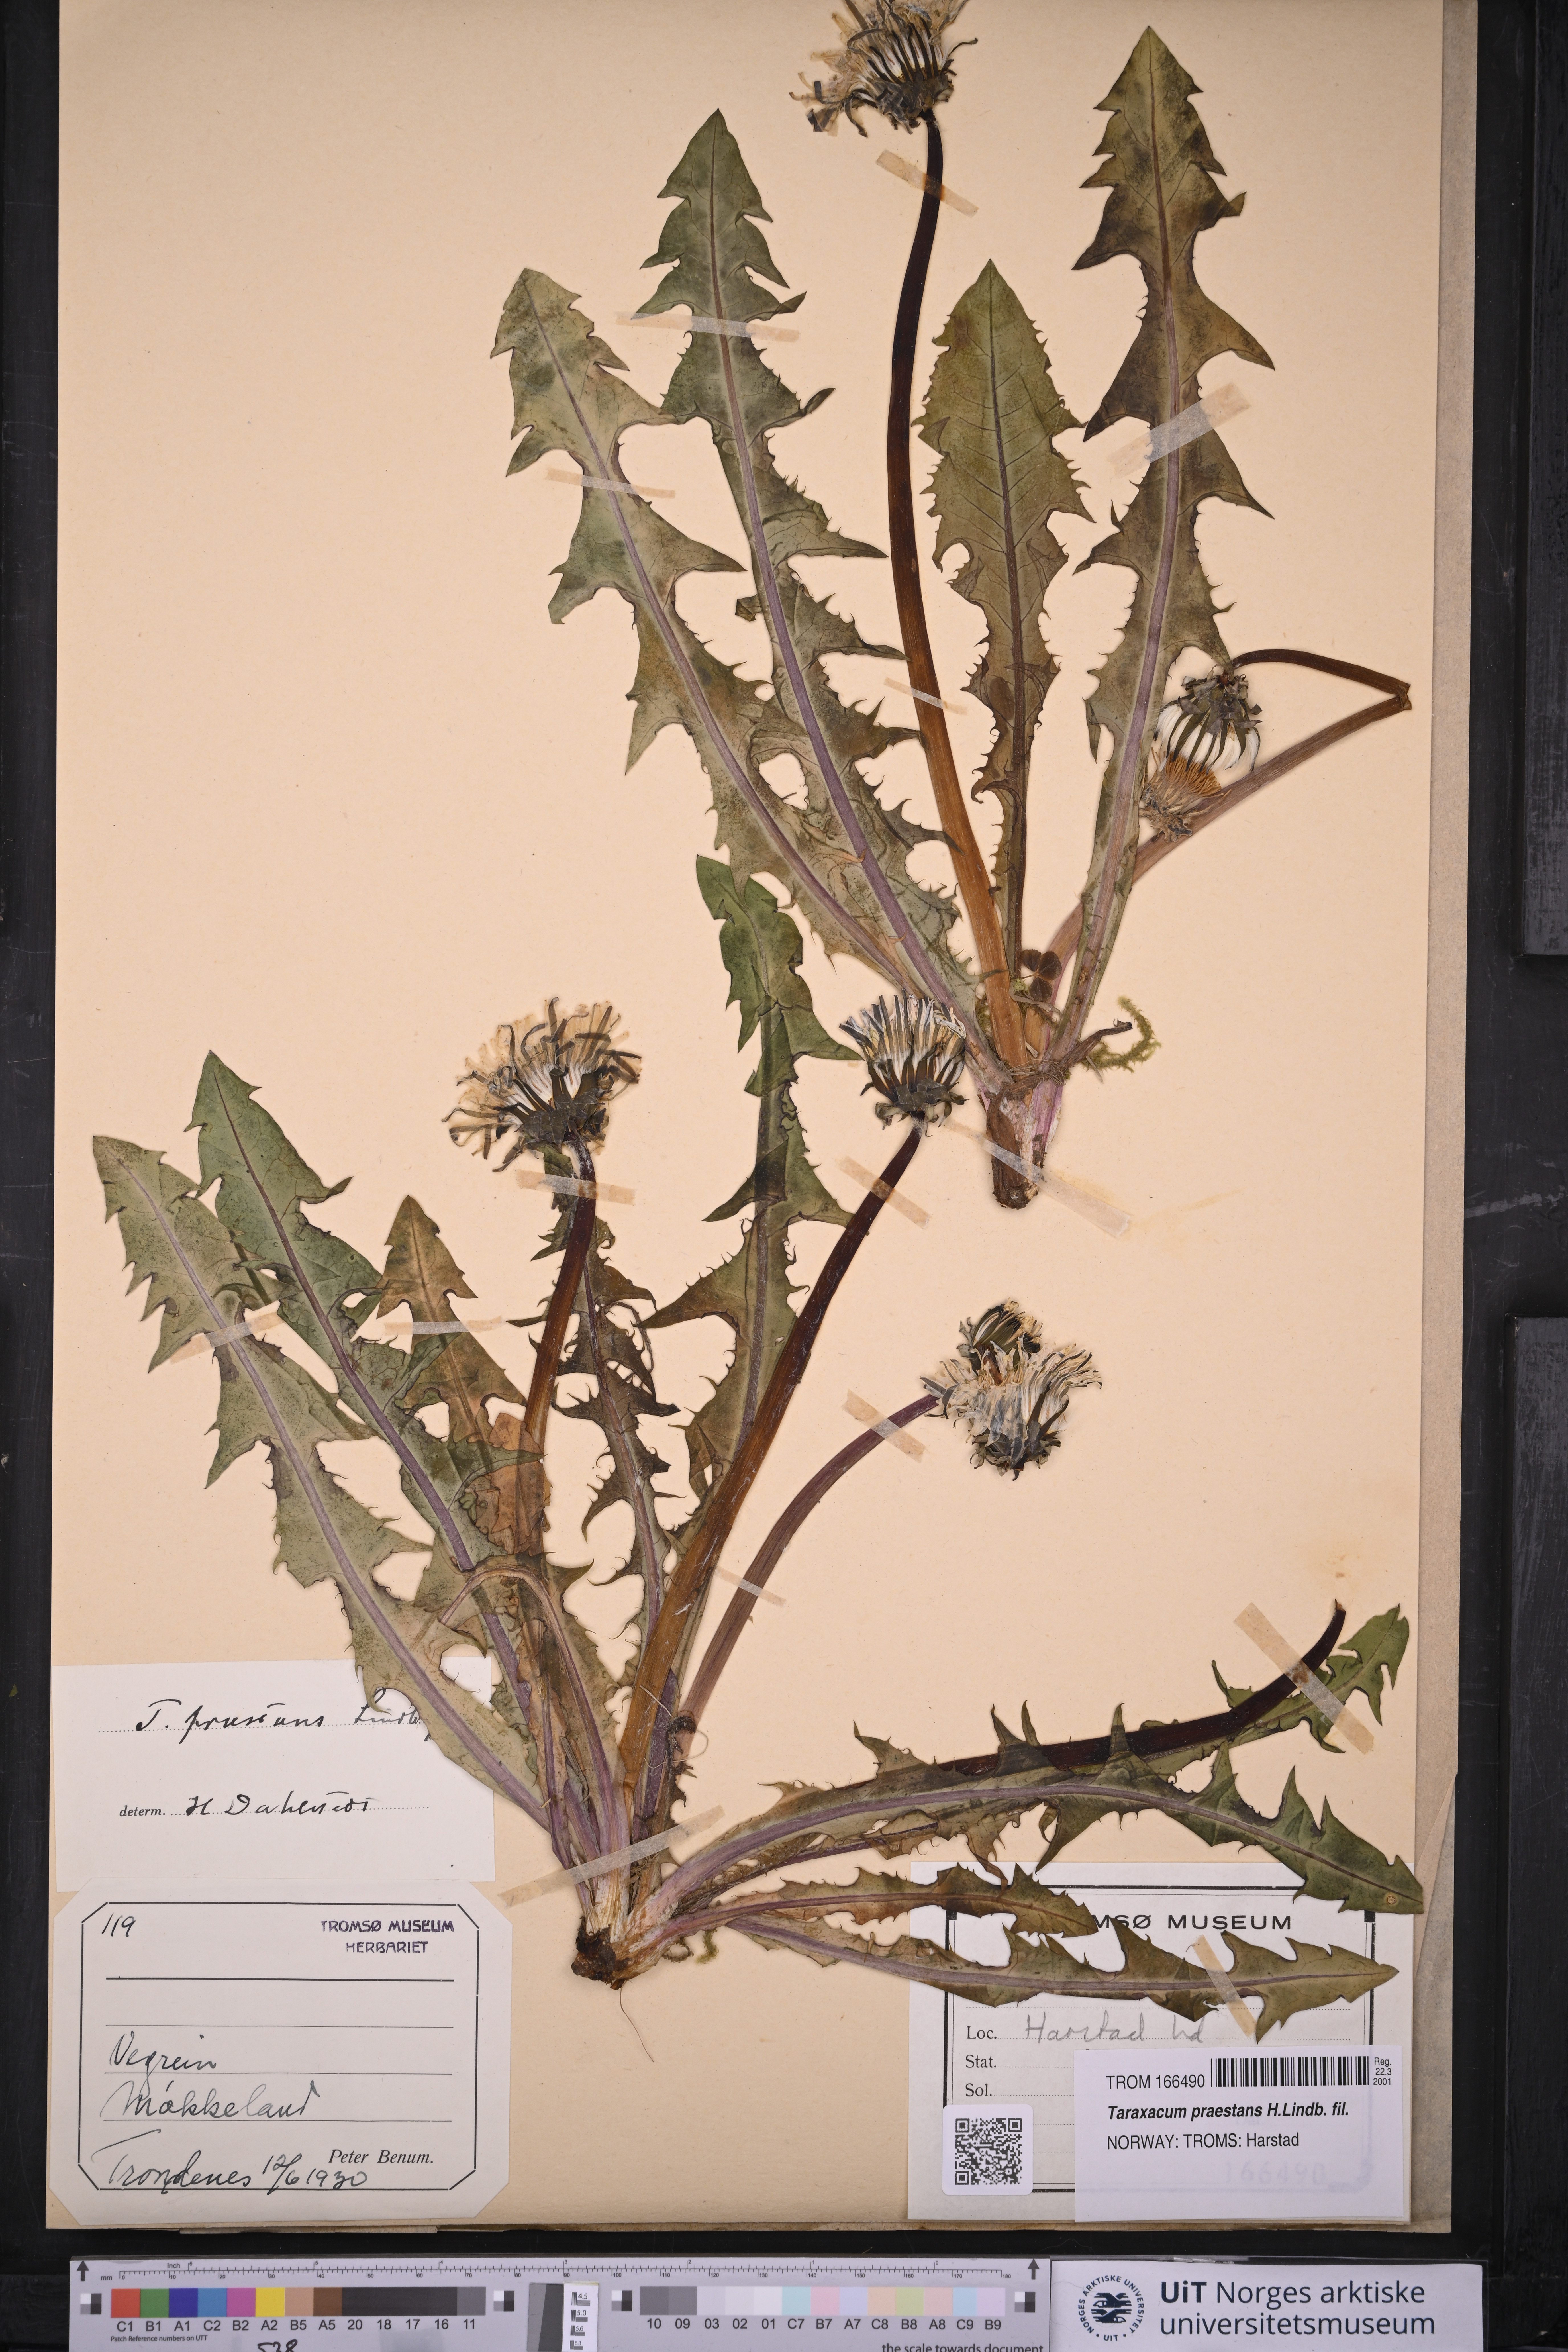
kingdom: Plantae
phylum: Tracheophyta
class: Magnoliopsida
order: Asterales
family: Asteraceae
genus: Taraxacum
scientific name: Taraxacum praestans
